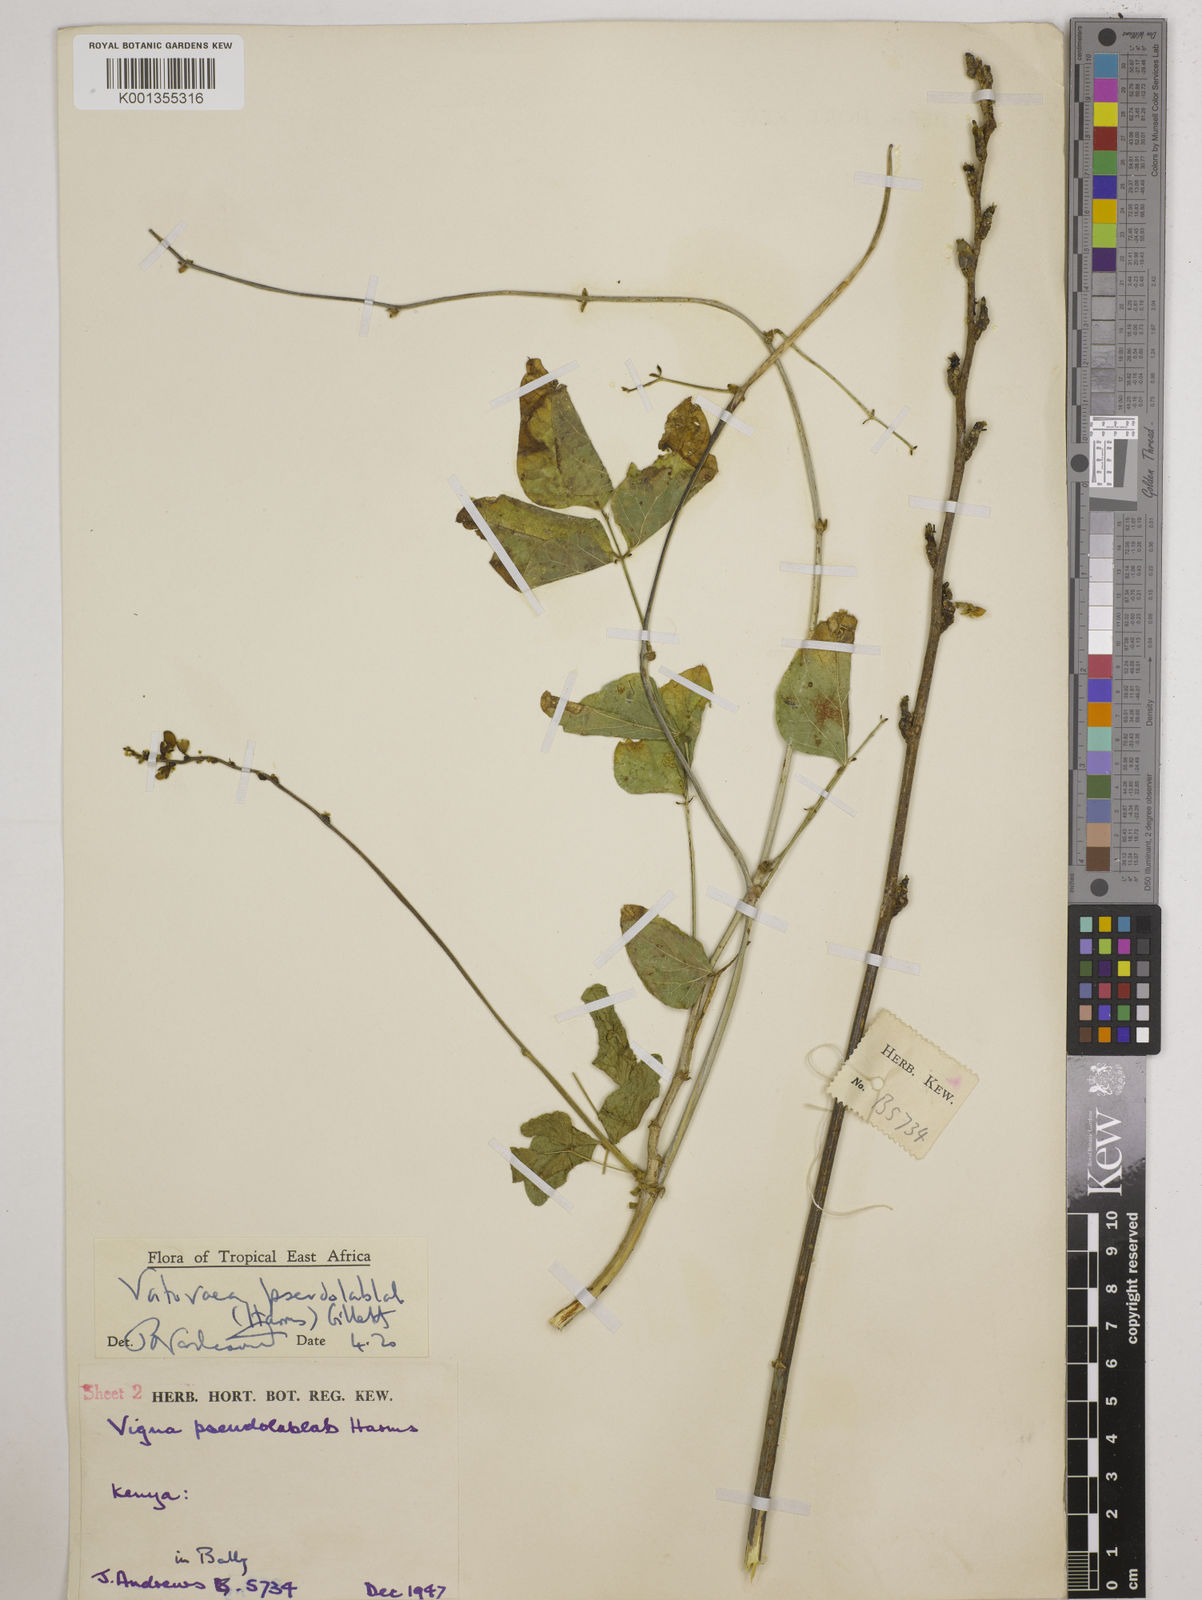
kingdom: Plantae
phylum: Tracheophyta
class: Magnoliopsida
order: Fabales
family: Fabaceae
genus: Vatovaea
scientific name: Vatovaea pseudolablab
